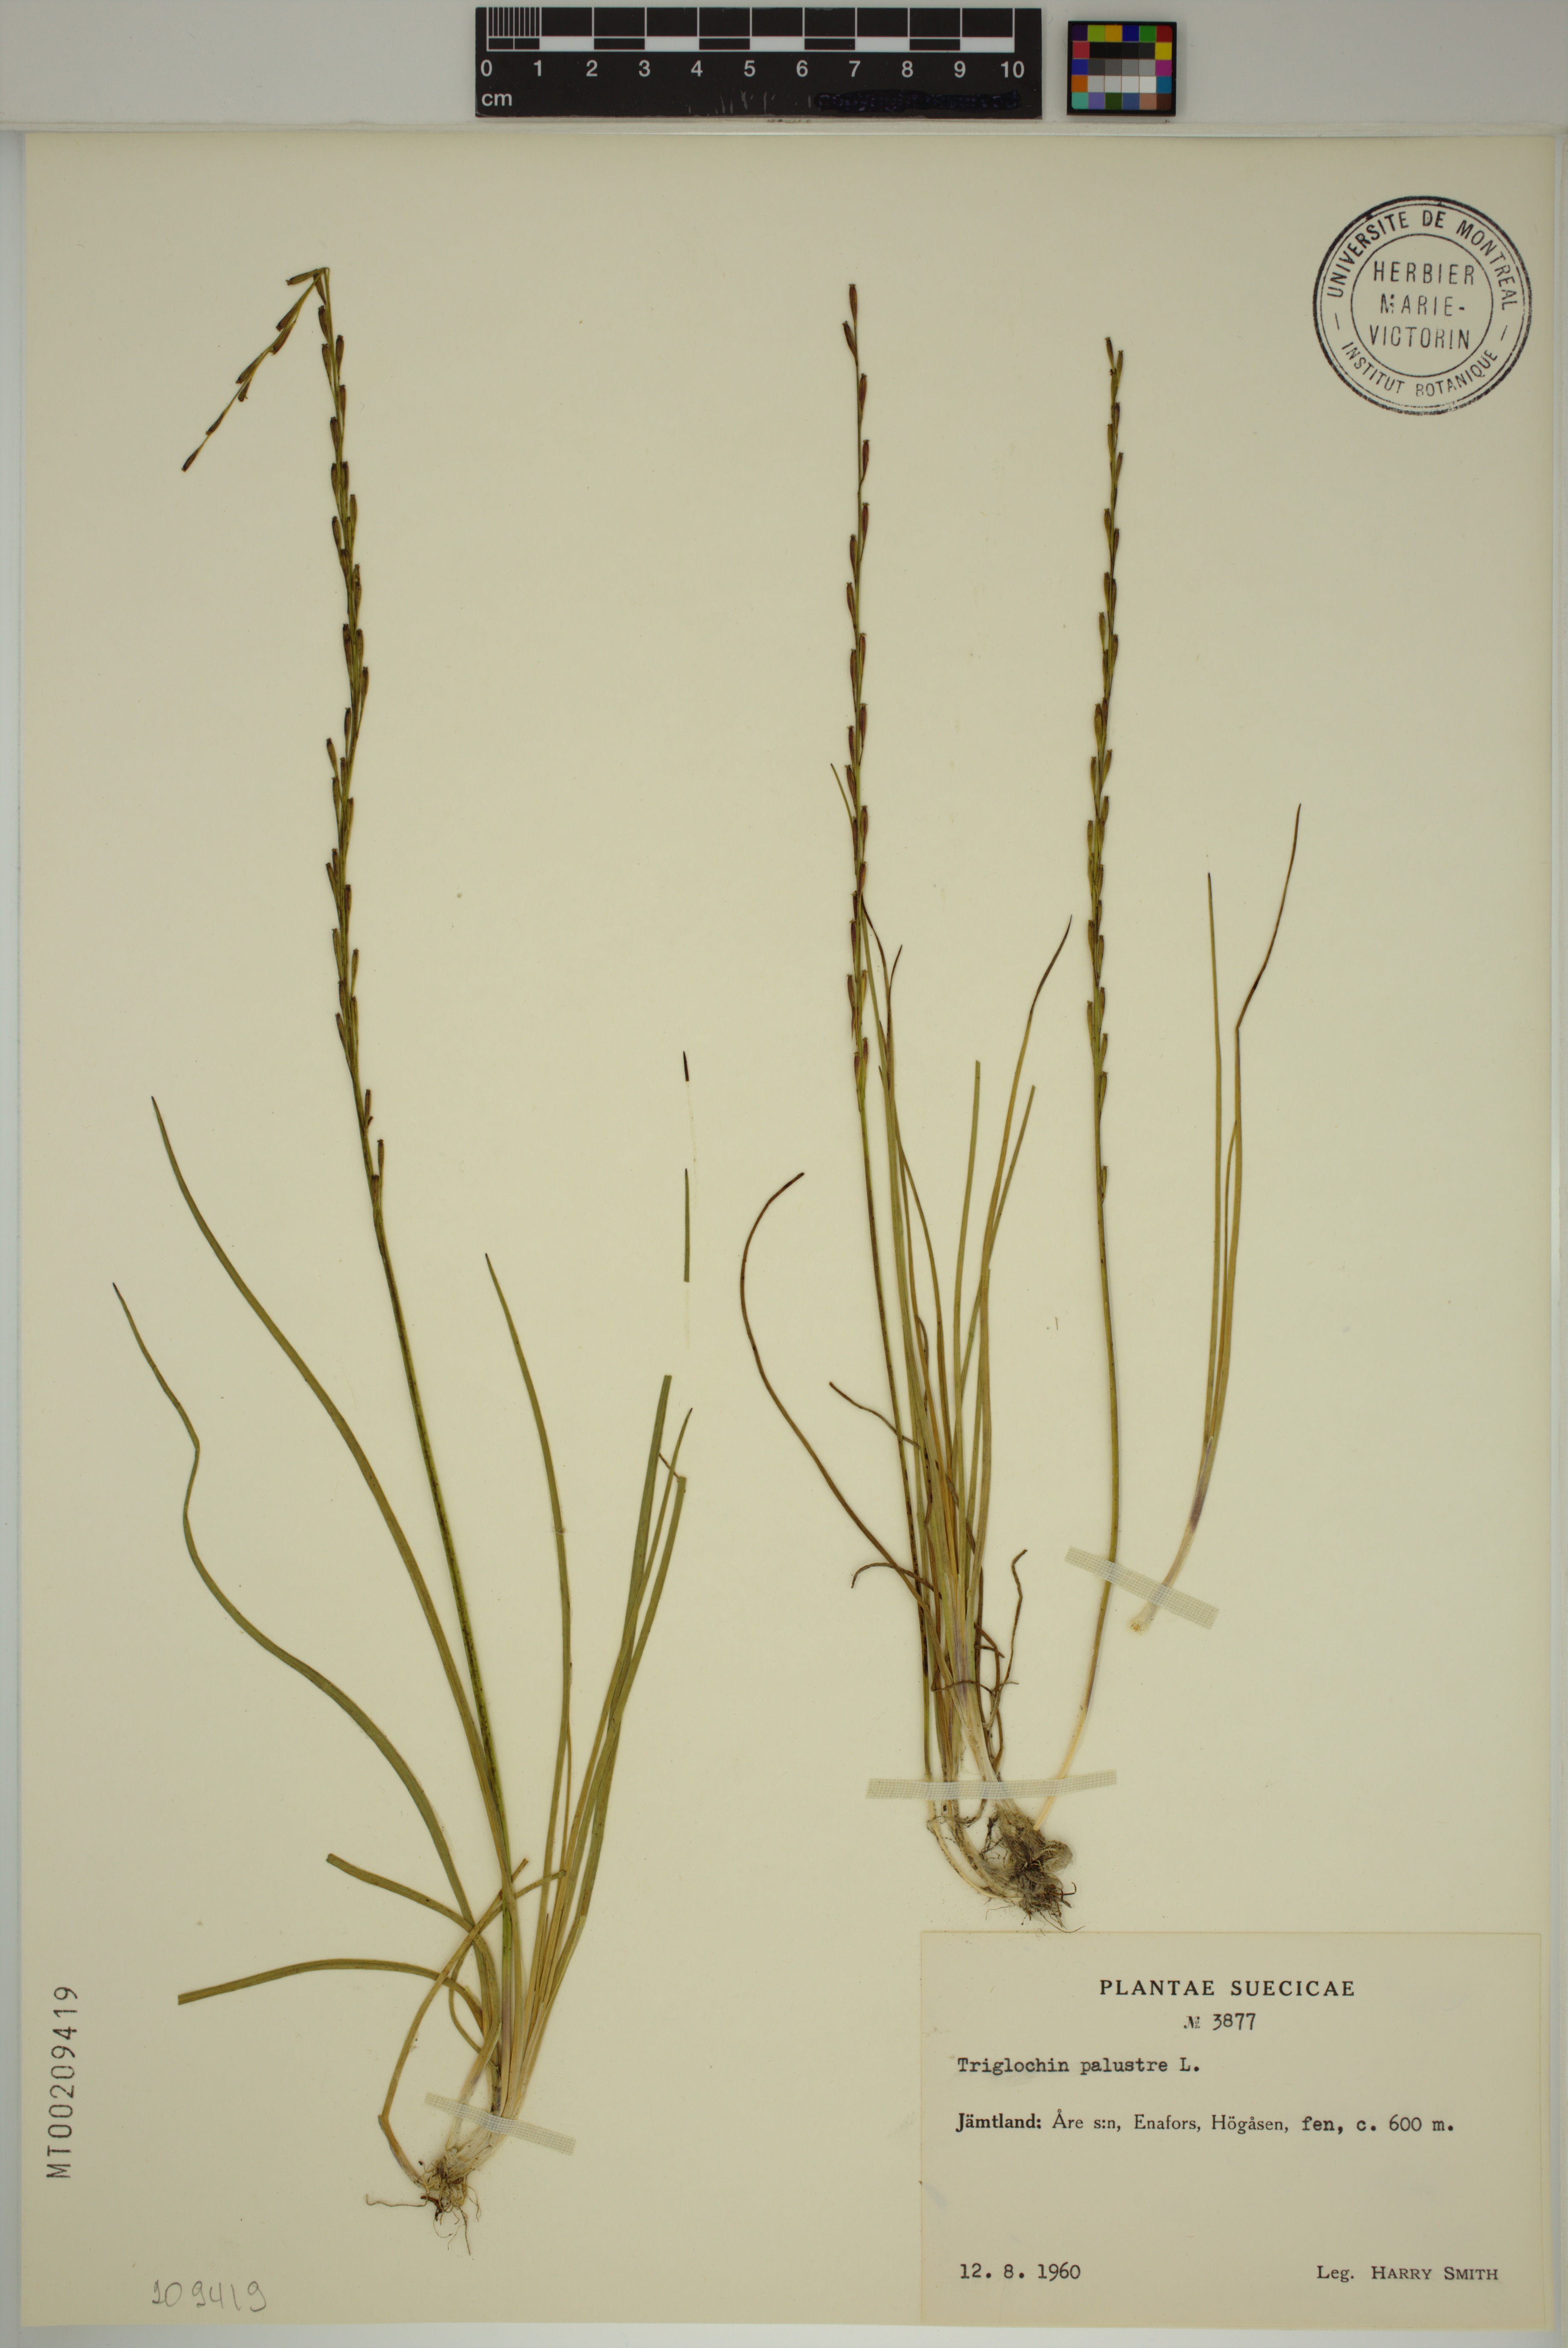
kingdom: Plantae
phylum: Tracheophyta
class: Liliopsida
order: Alismatales
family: Juncaginaceae
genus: Triglochin
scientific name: Triglochin palustris
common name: Marsh arrowgrass
